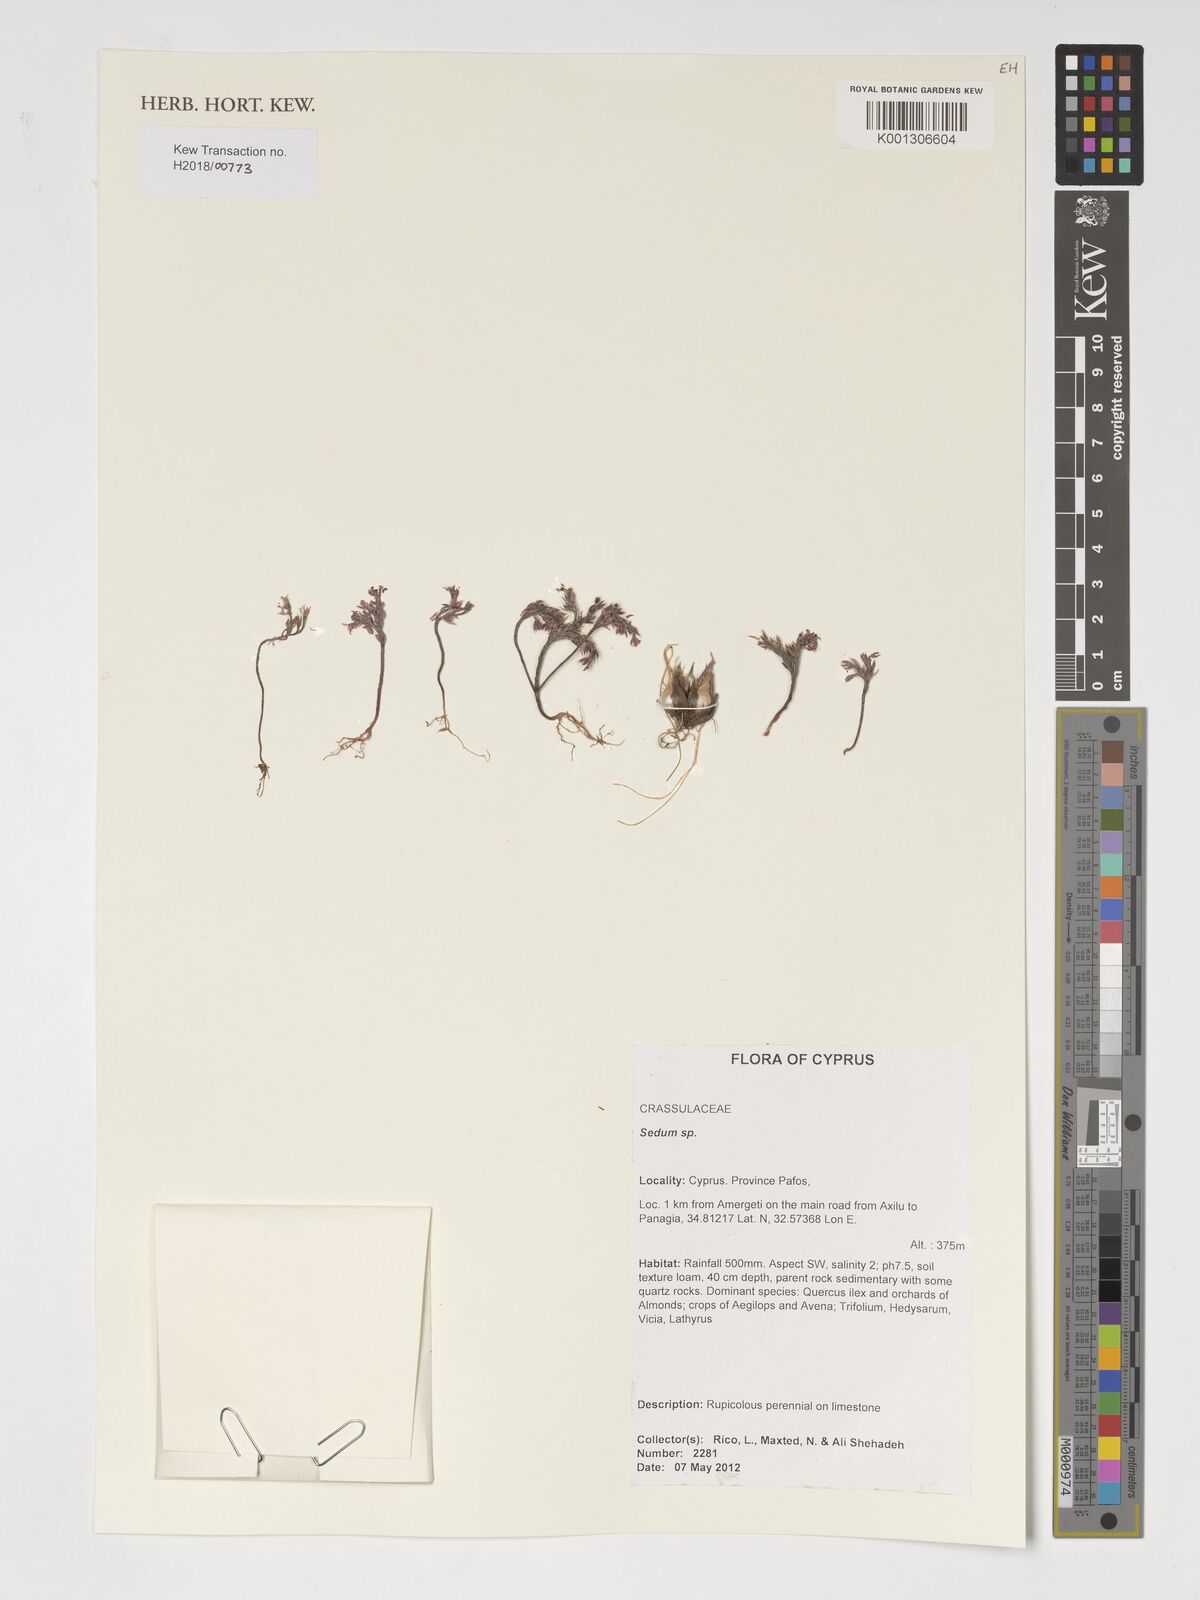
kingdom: Plantae
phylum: Tracheophyta
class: Magnoliopsida
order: Saxifragales
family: Crassulaceae
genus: Sedum
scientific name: Sedum
